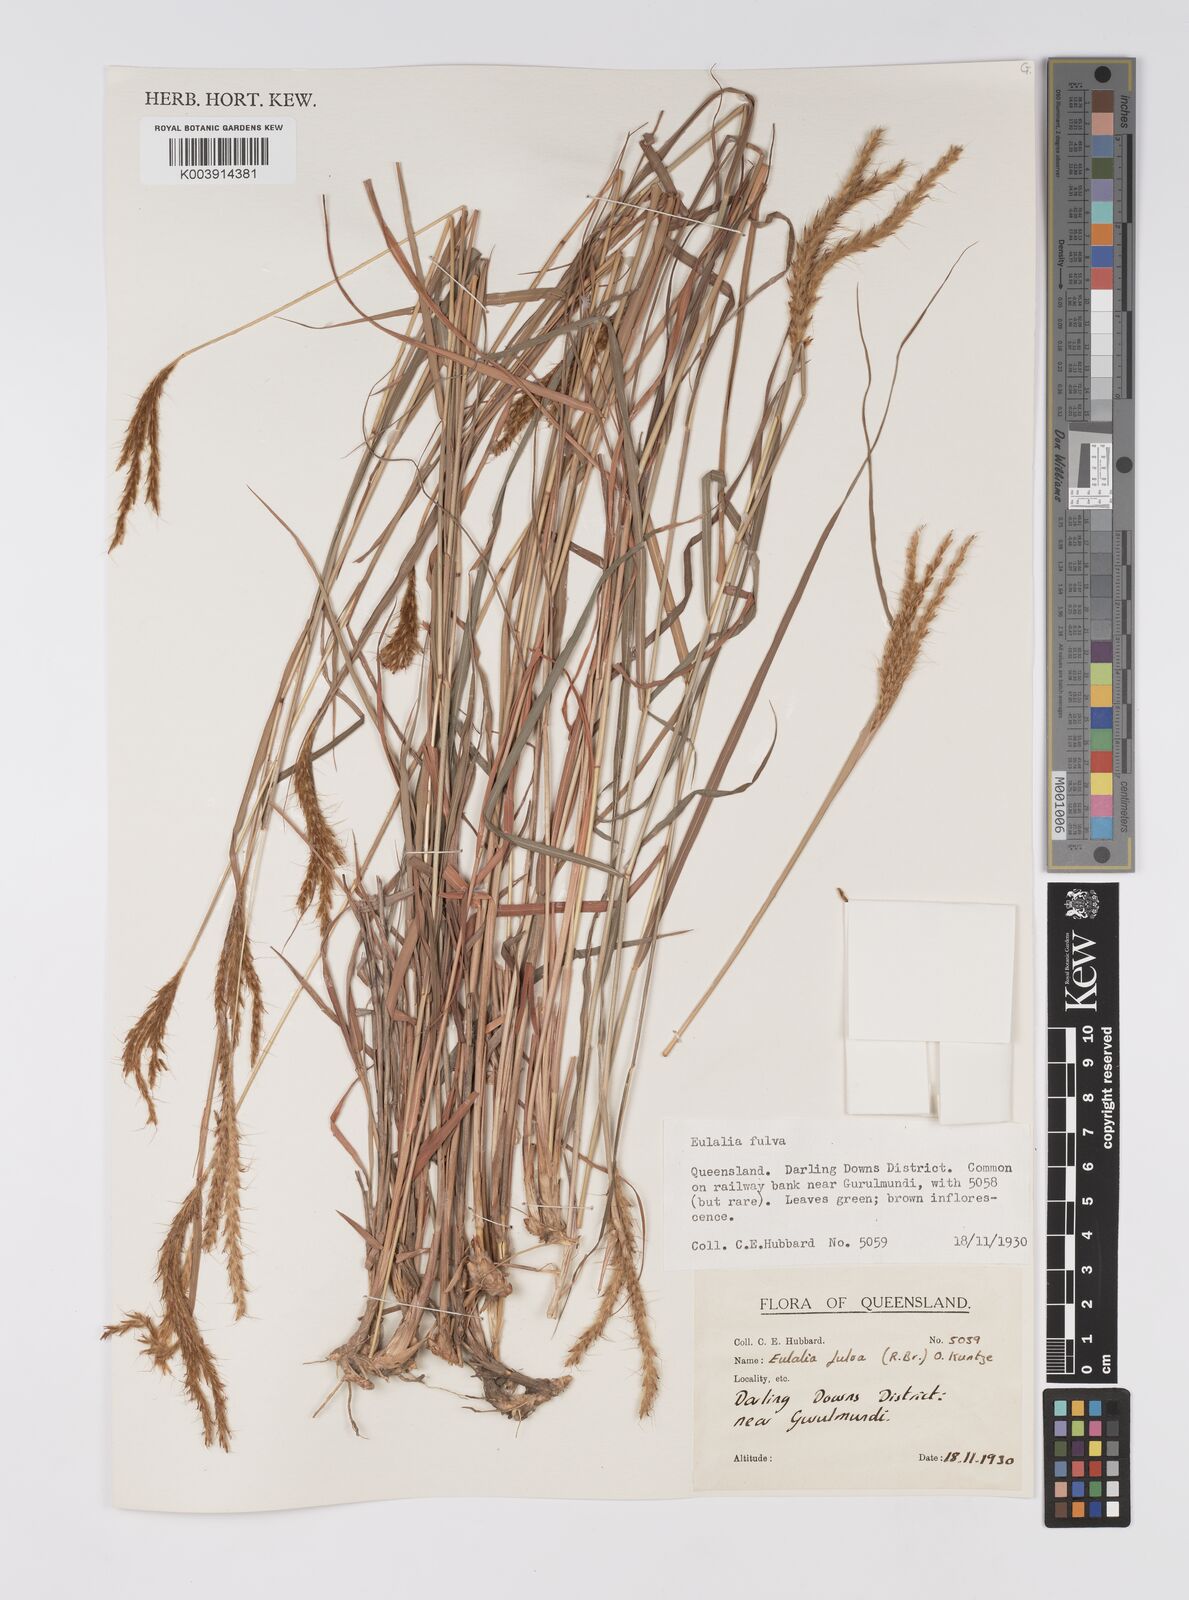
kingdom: Plantae
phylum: Tracheophyta
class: Liliopsida
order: Poales
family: Poaceae
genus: Eulalia
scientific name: Eulalia aurea
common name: Silky browntop
